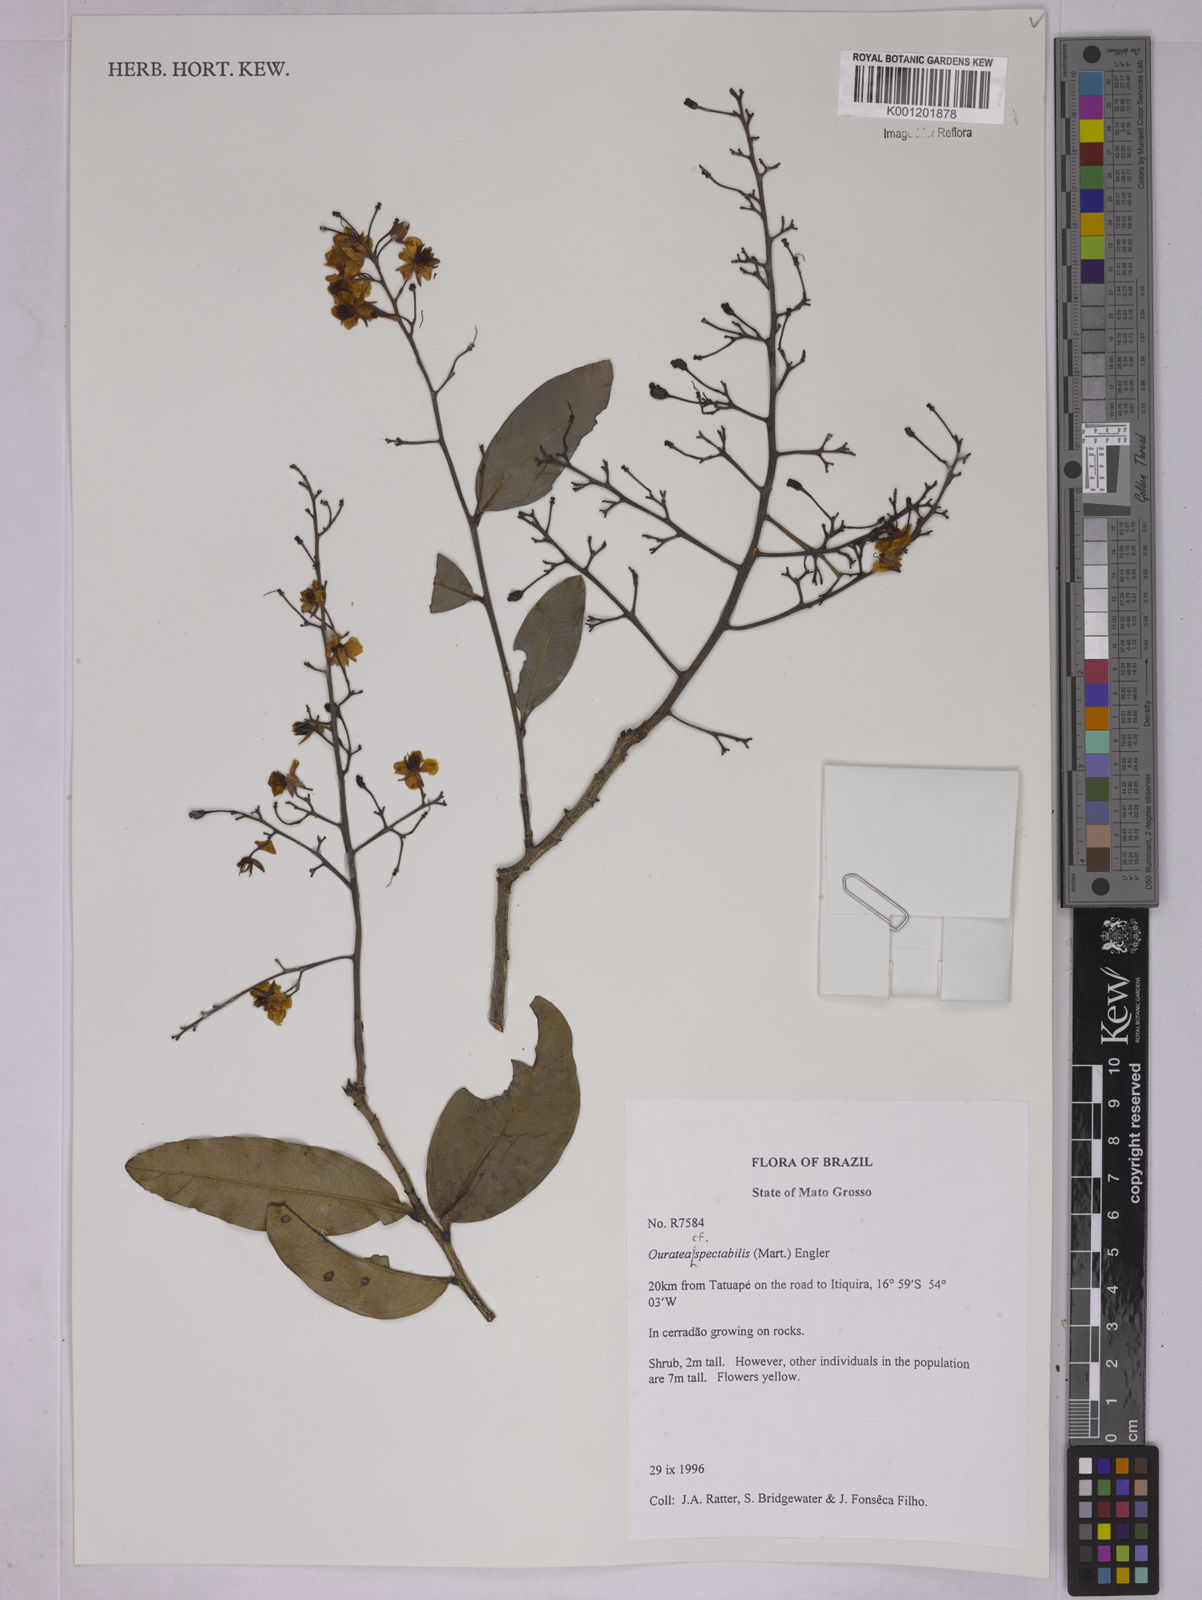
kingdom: Plantae
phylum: Tracheophyta
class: Magnoliopsida
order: Malpighiales
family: Ochnaceae
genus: Ouratea
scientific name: Ouratea spectabilis
